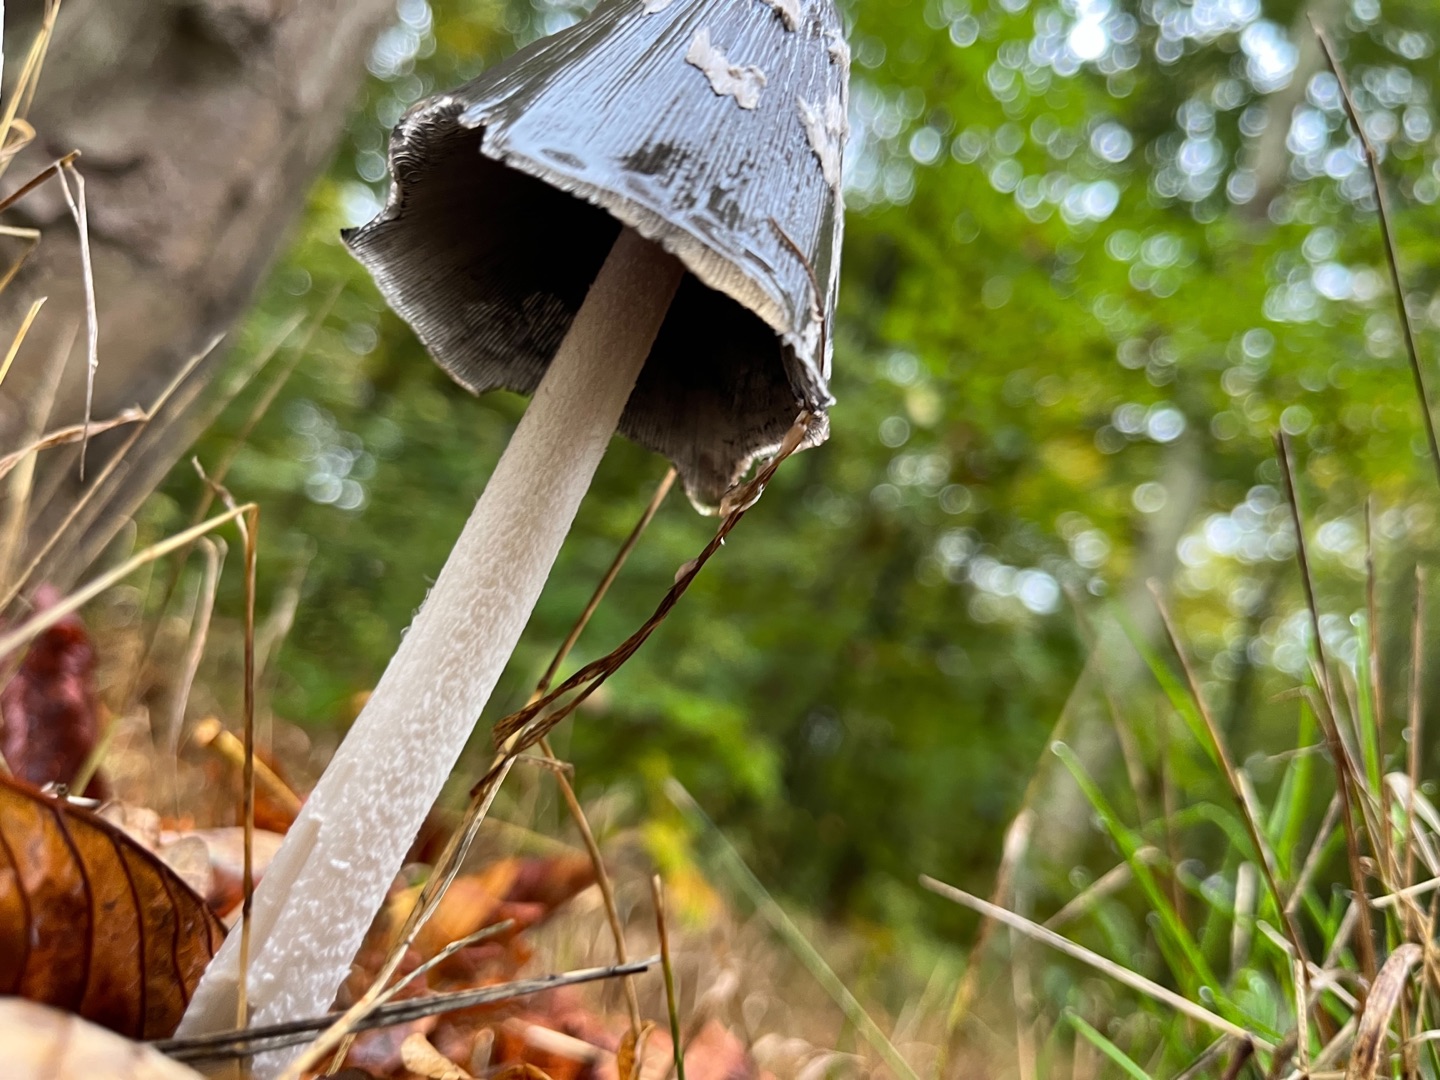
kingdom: Fungi
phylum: Basidiomycota
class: Agaricomycetes
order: Agaricales
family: Psathyrellaceae
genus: Coprinopsis
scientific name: Coprinopsis picacea
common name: Skade-blækhat
